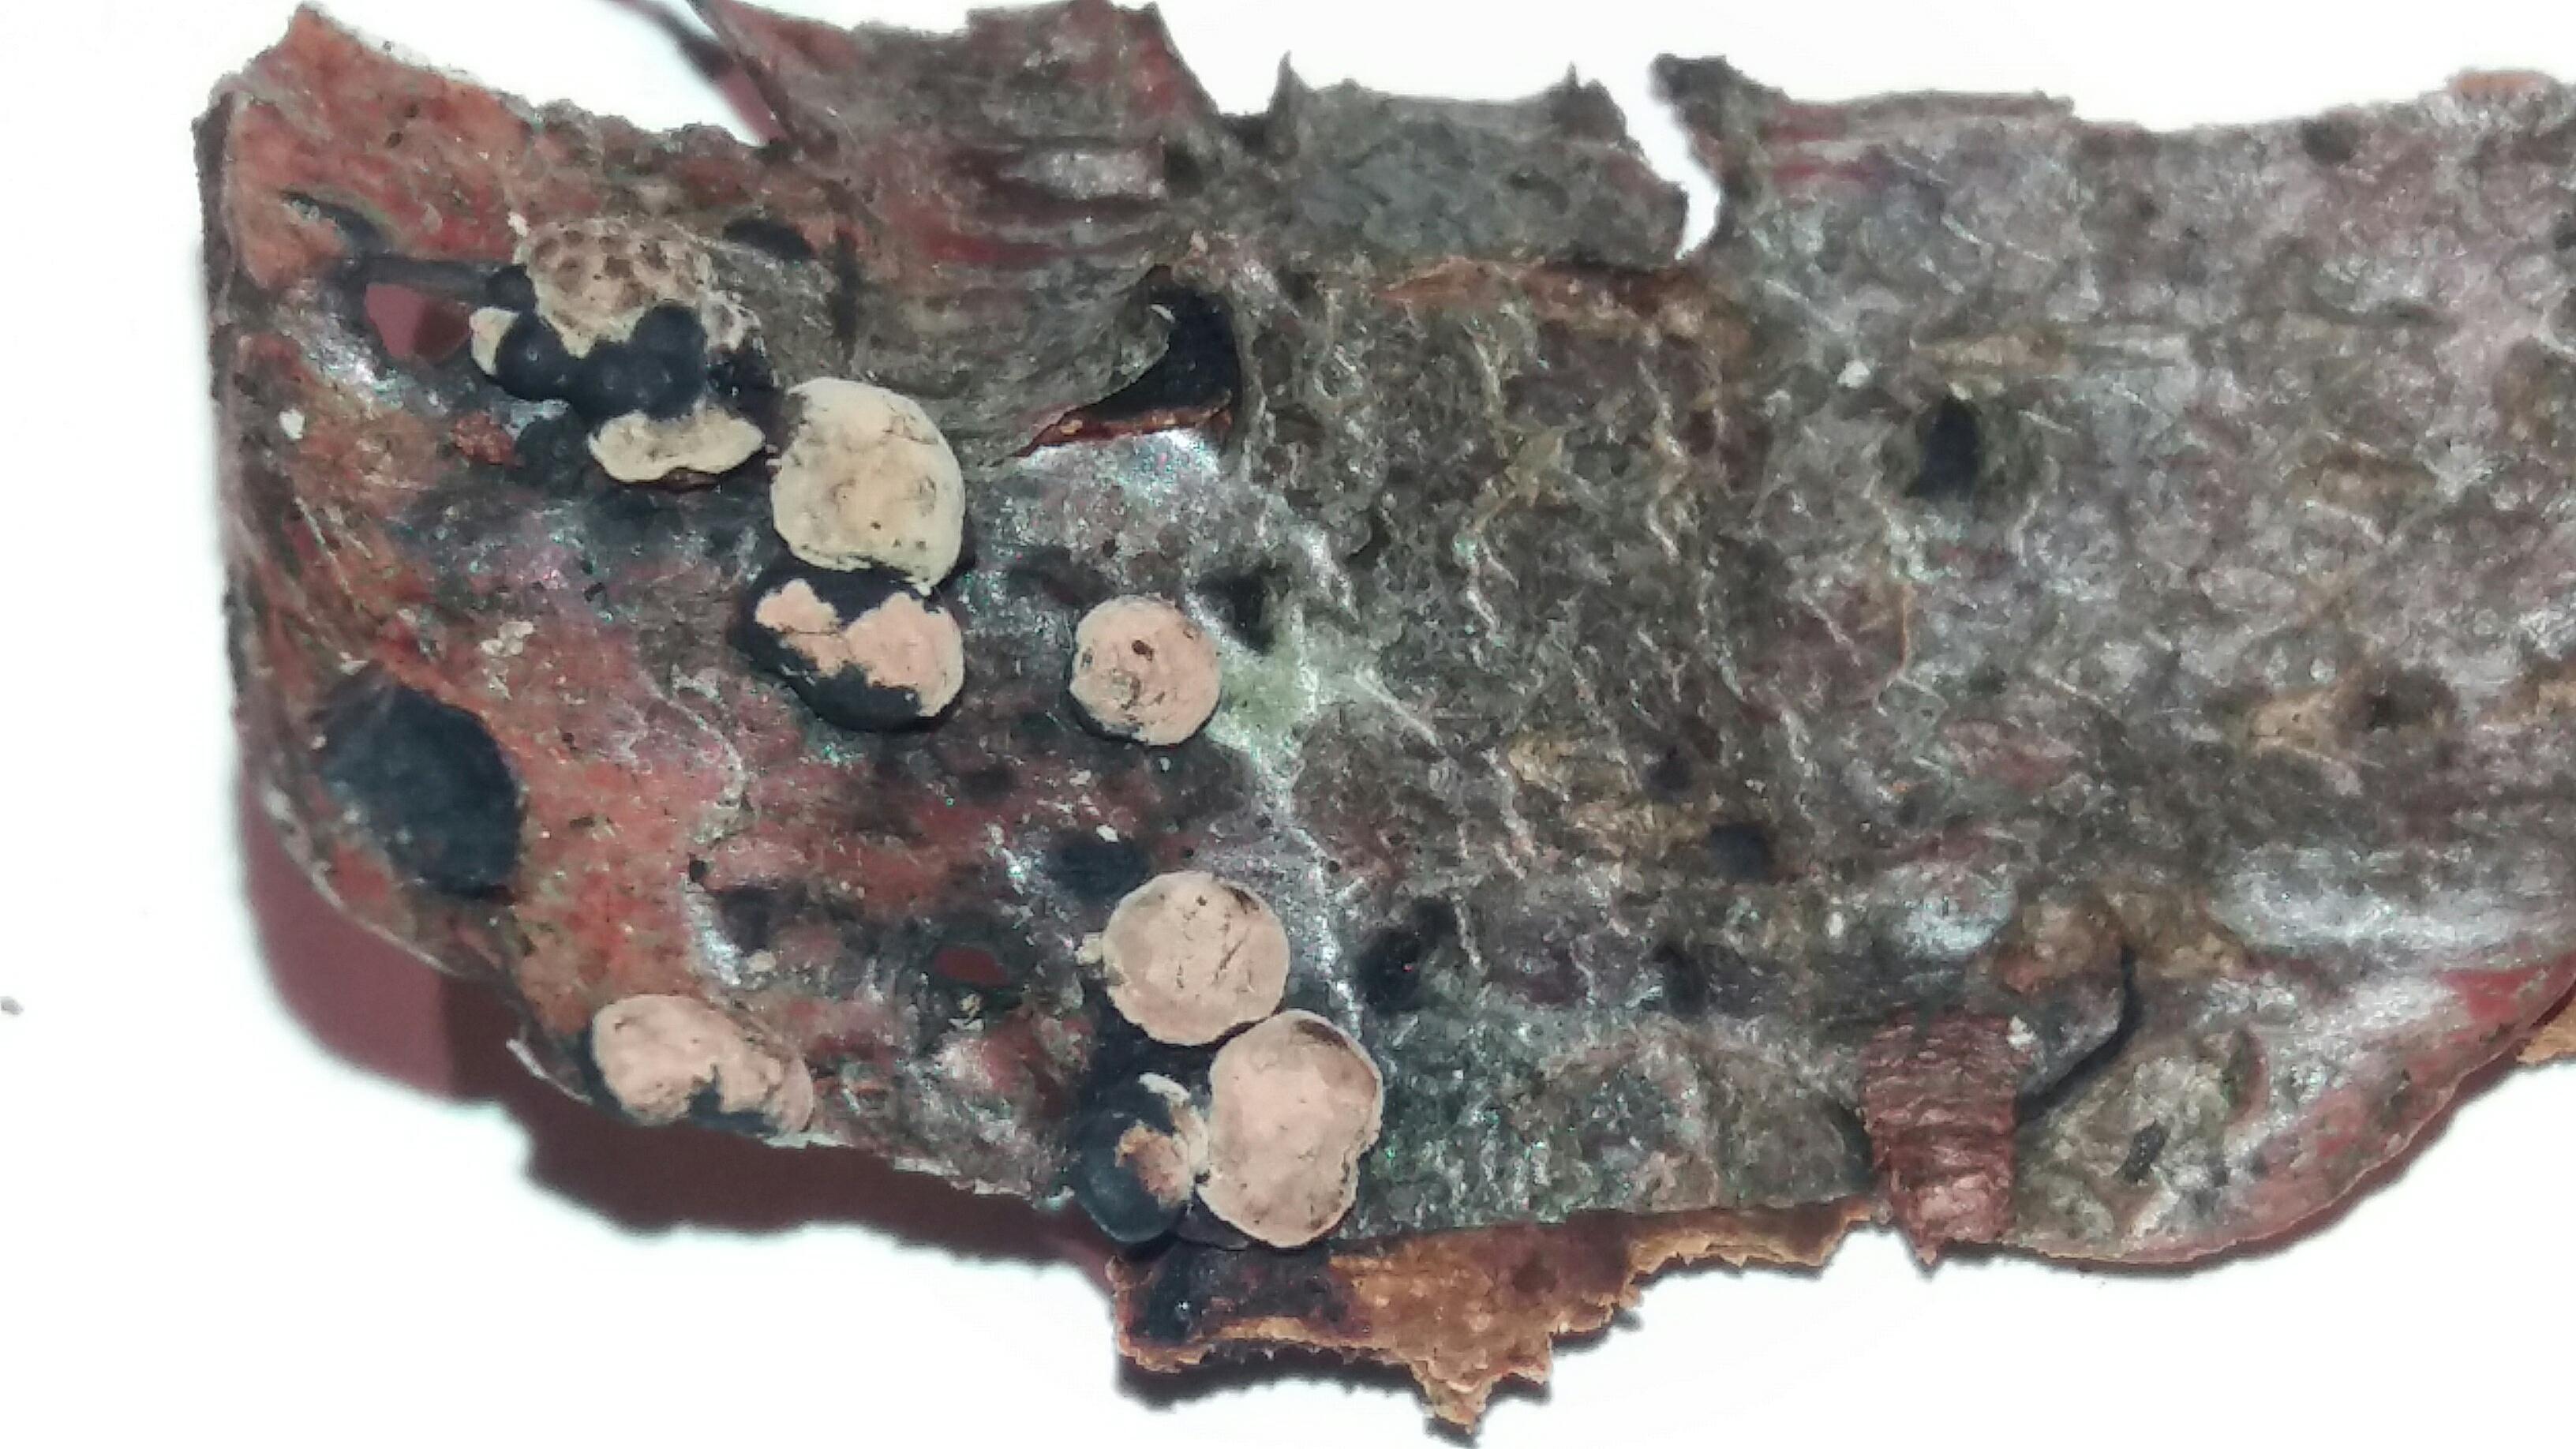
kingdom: Fungi
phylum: Ascomycota
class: Sordariomycetes
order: Xylariales
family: Hypoxylaceae
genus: Hypoxylon
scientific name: Hypoxylon
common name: kulbær
